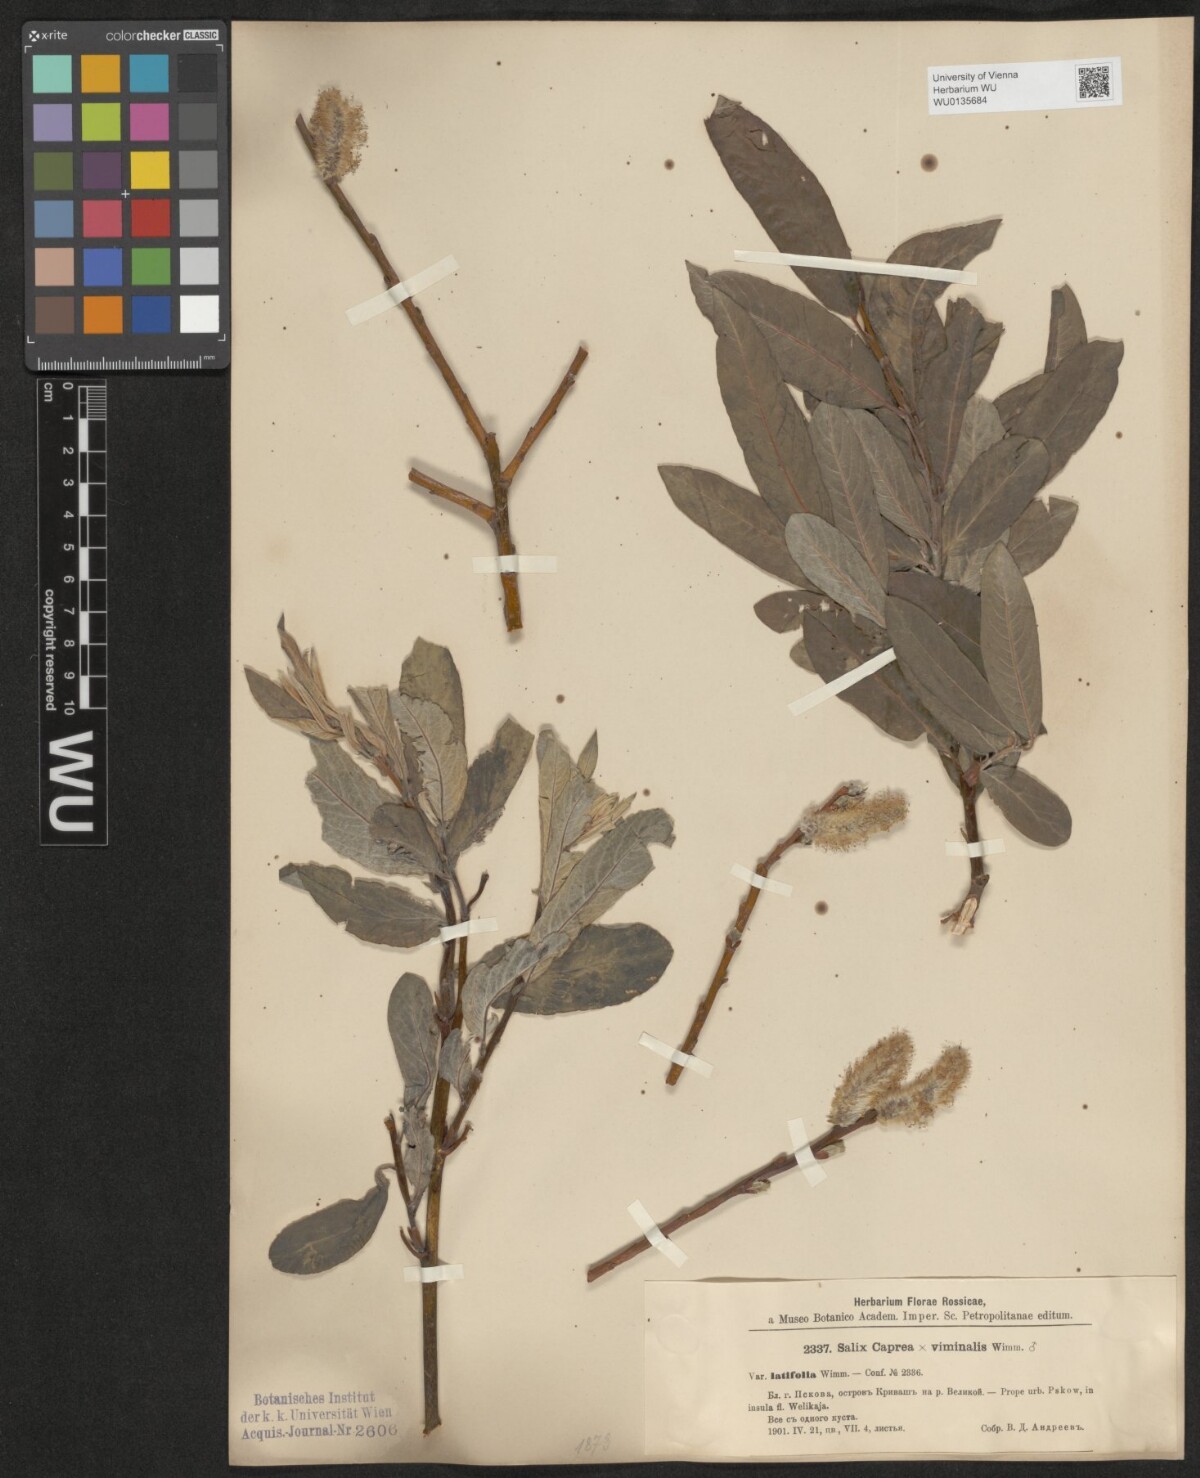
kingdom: Plantae
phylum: Tracheophyta
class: Magnoliopsida
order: Malpighiales
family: Salicaceae
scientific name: Salicaceae
